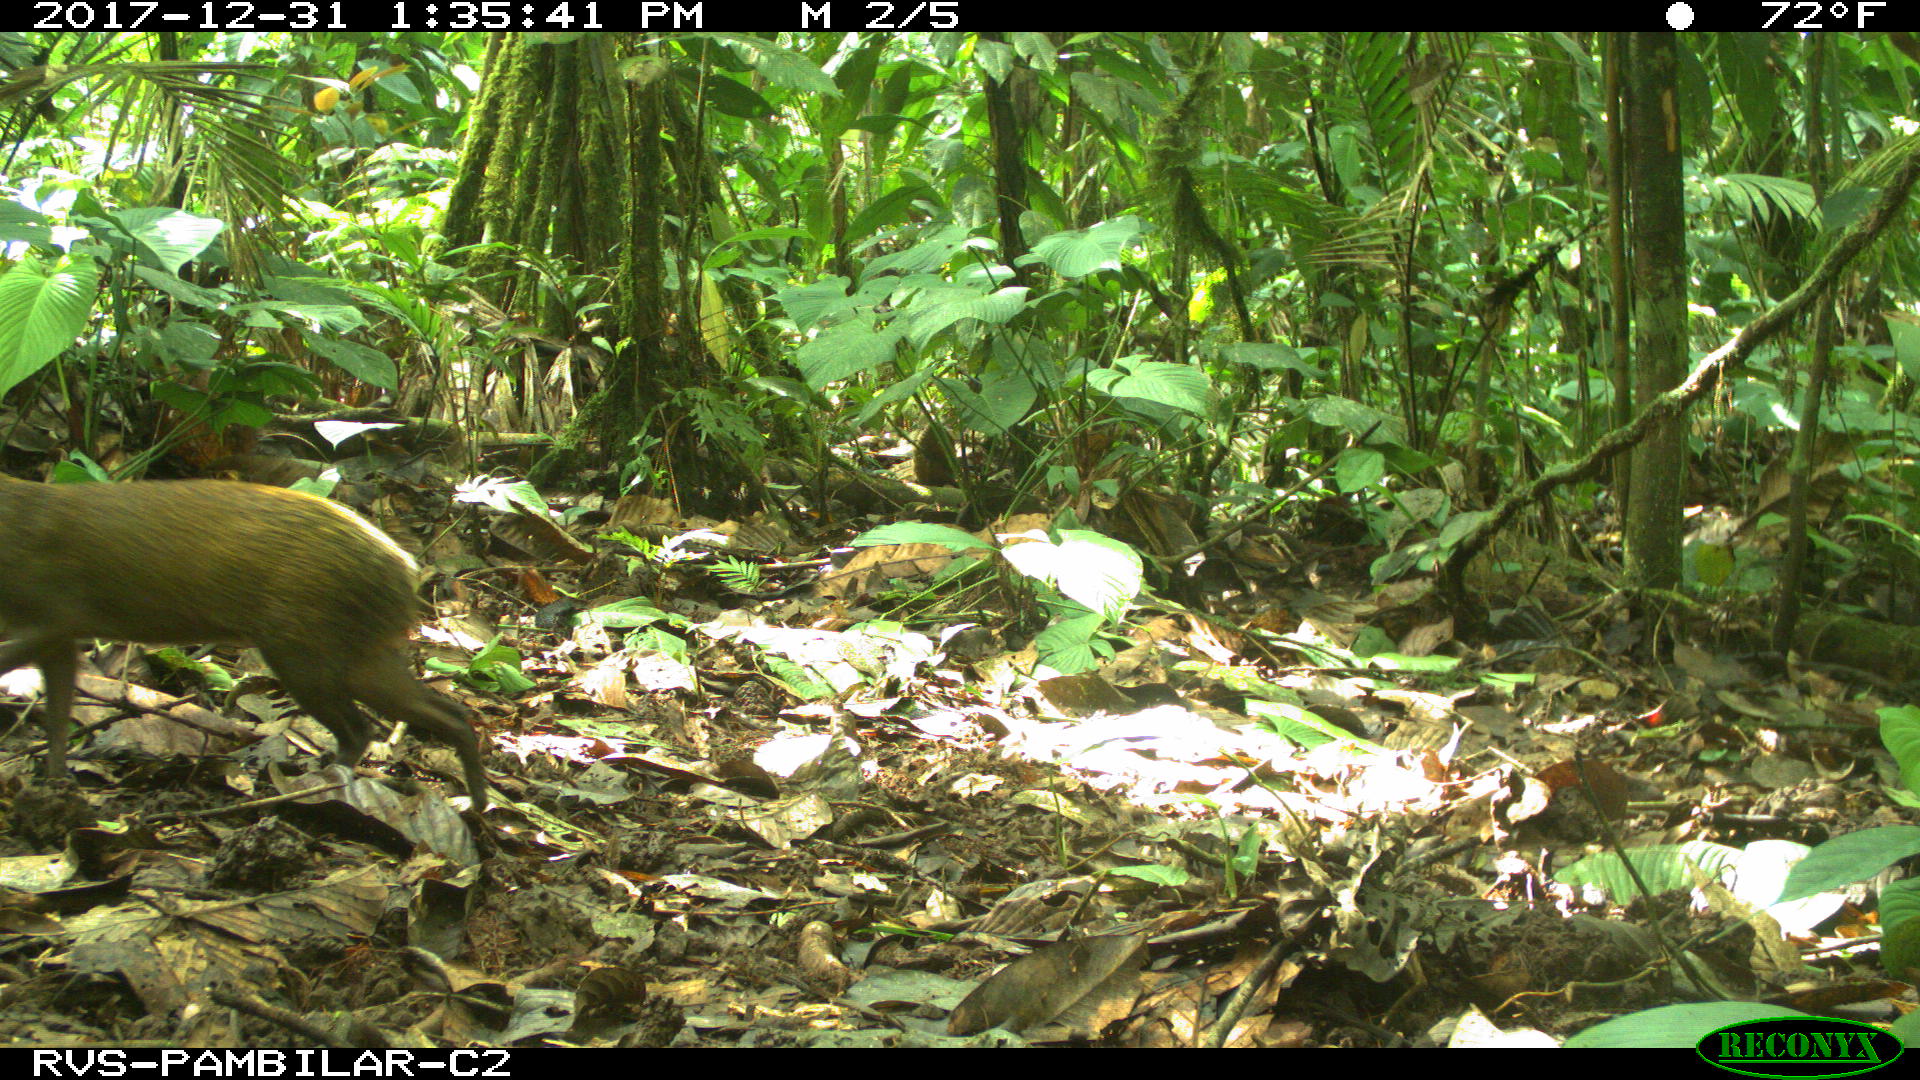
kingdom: Animalia
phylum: Chordata
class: Mammalia
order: Rodentia
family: Dasyproctidae
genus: Dasyprocta
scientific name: Dasyprocta punctata
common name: Central american agouti
